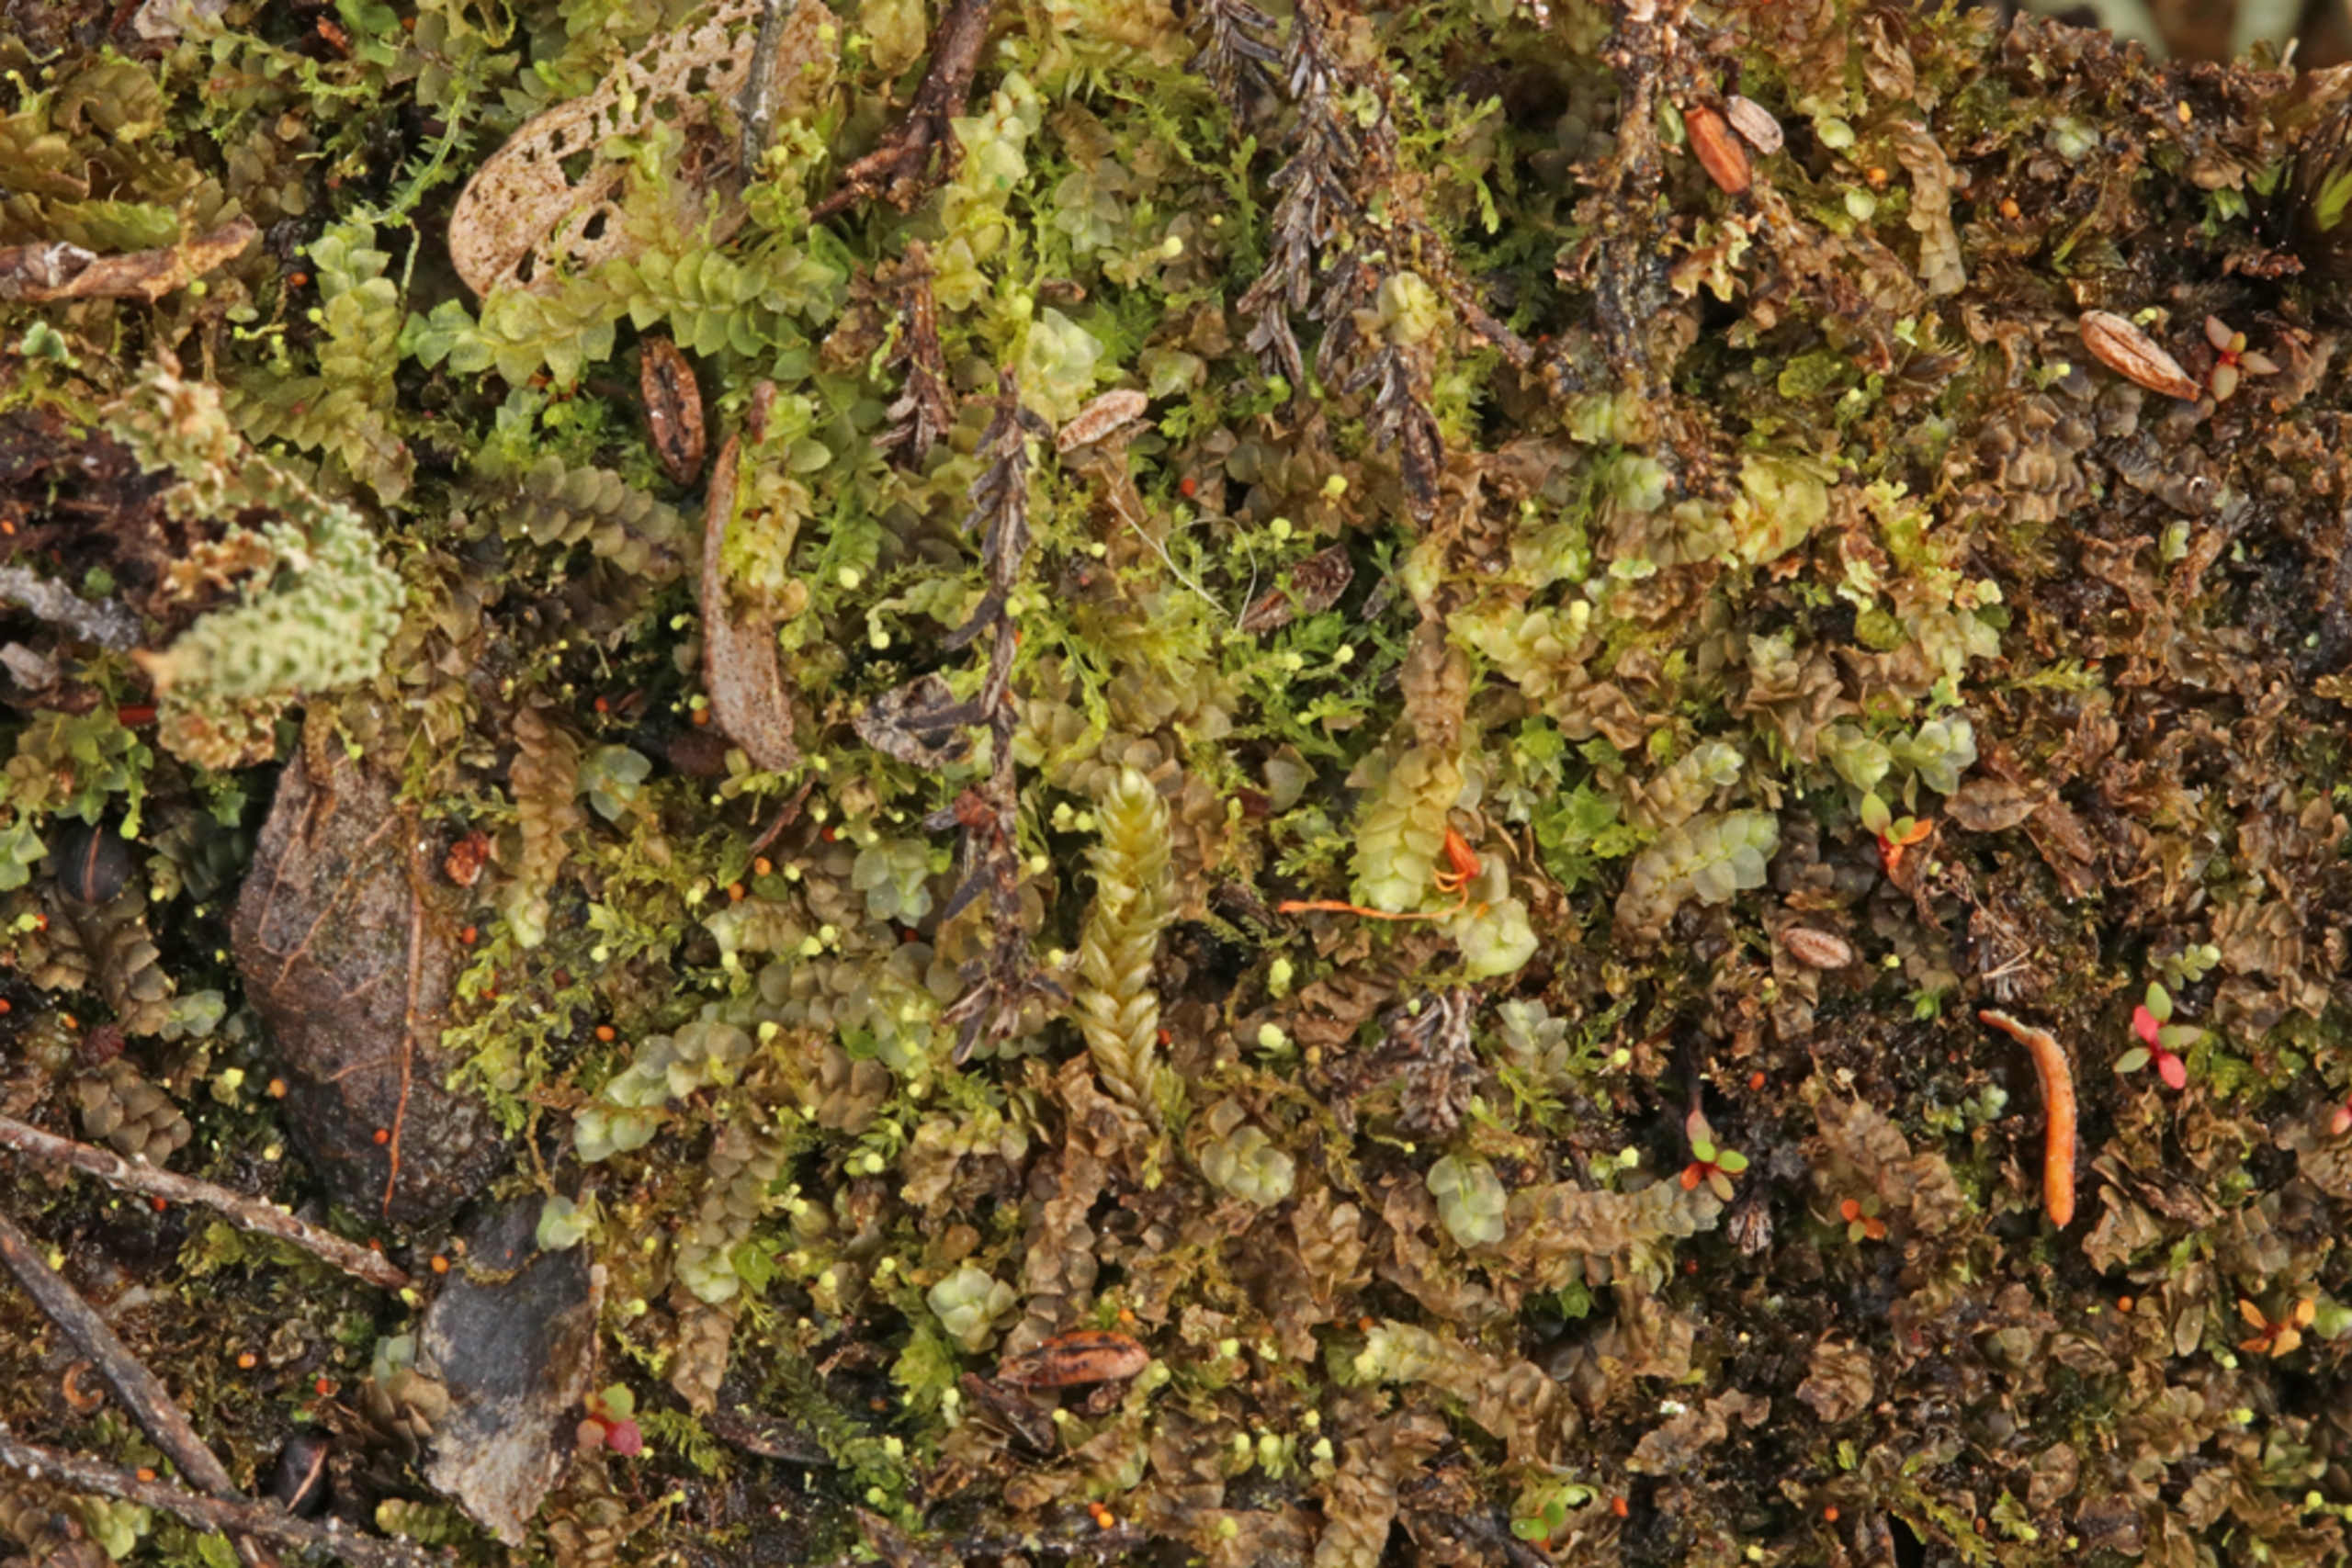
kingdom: Plantae
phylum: Marchantiophyta
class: Jungermanniopsida
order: Jungermanniales
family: Calypogeiaceae
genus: Calypogeia
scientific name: Calypogeia fissa
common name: Tvespidset sækmos
